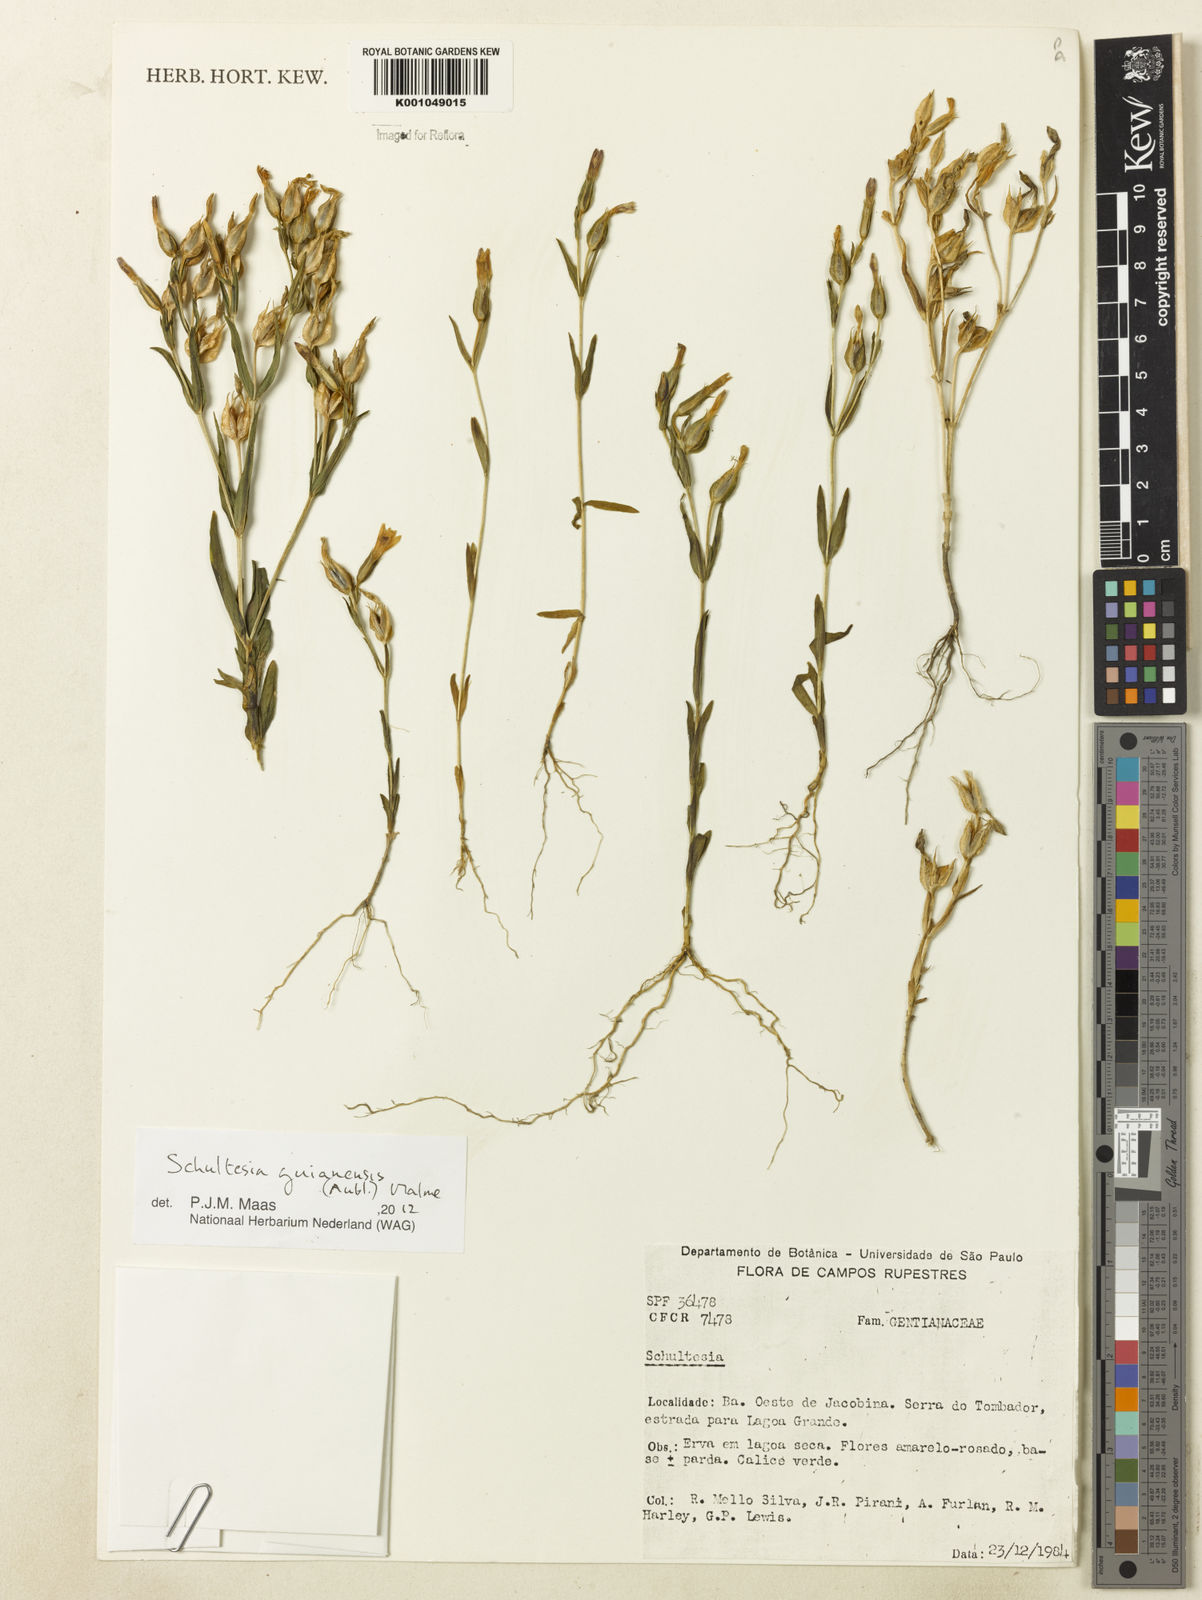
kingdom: Plantae
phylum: Tracheophyta
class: Magnoliopsida
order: Gentianales
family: Gentianaceae
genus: Schultesia
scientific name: Schultesia guianensis
